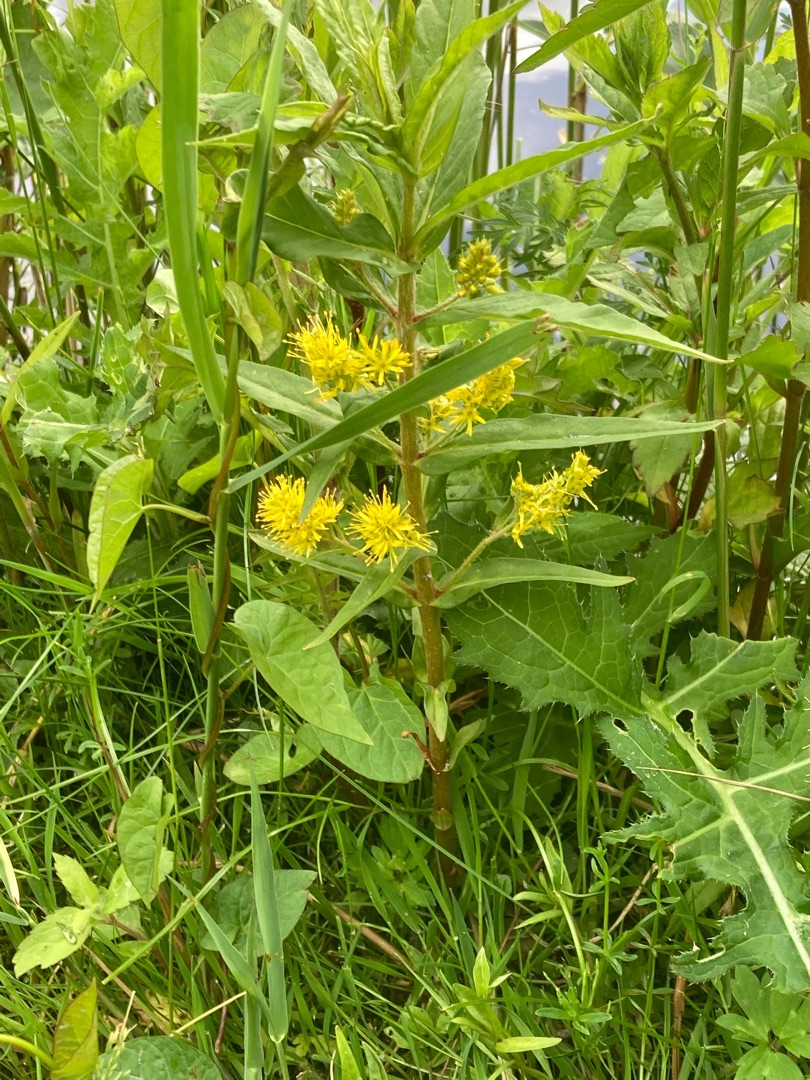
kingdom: Plantae
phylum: Tracheophyta
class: Magnoliopsida
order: Ericales
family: Primulaceae
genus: Lysimachia
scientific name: Lysimachia thyrsiflora
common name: Dusk-fredløs
